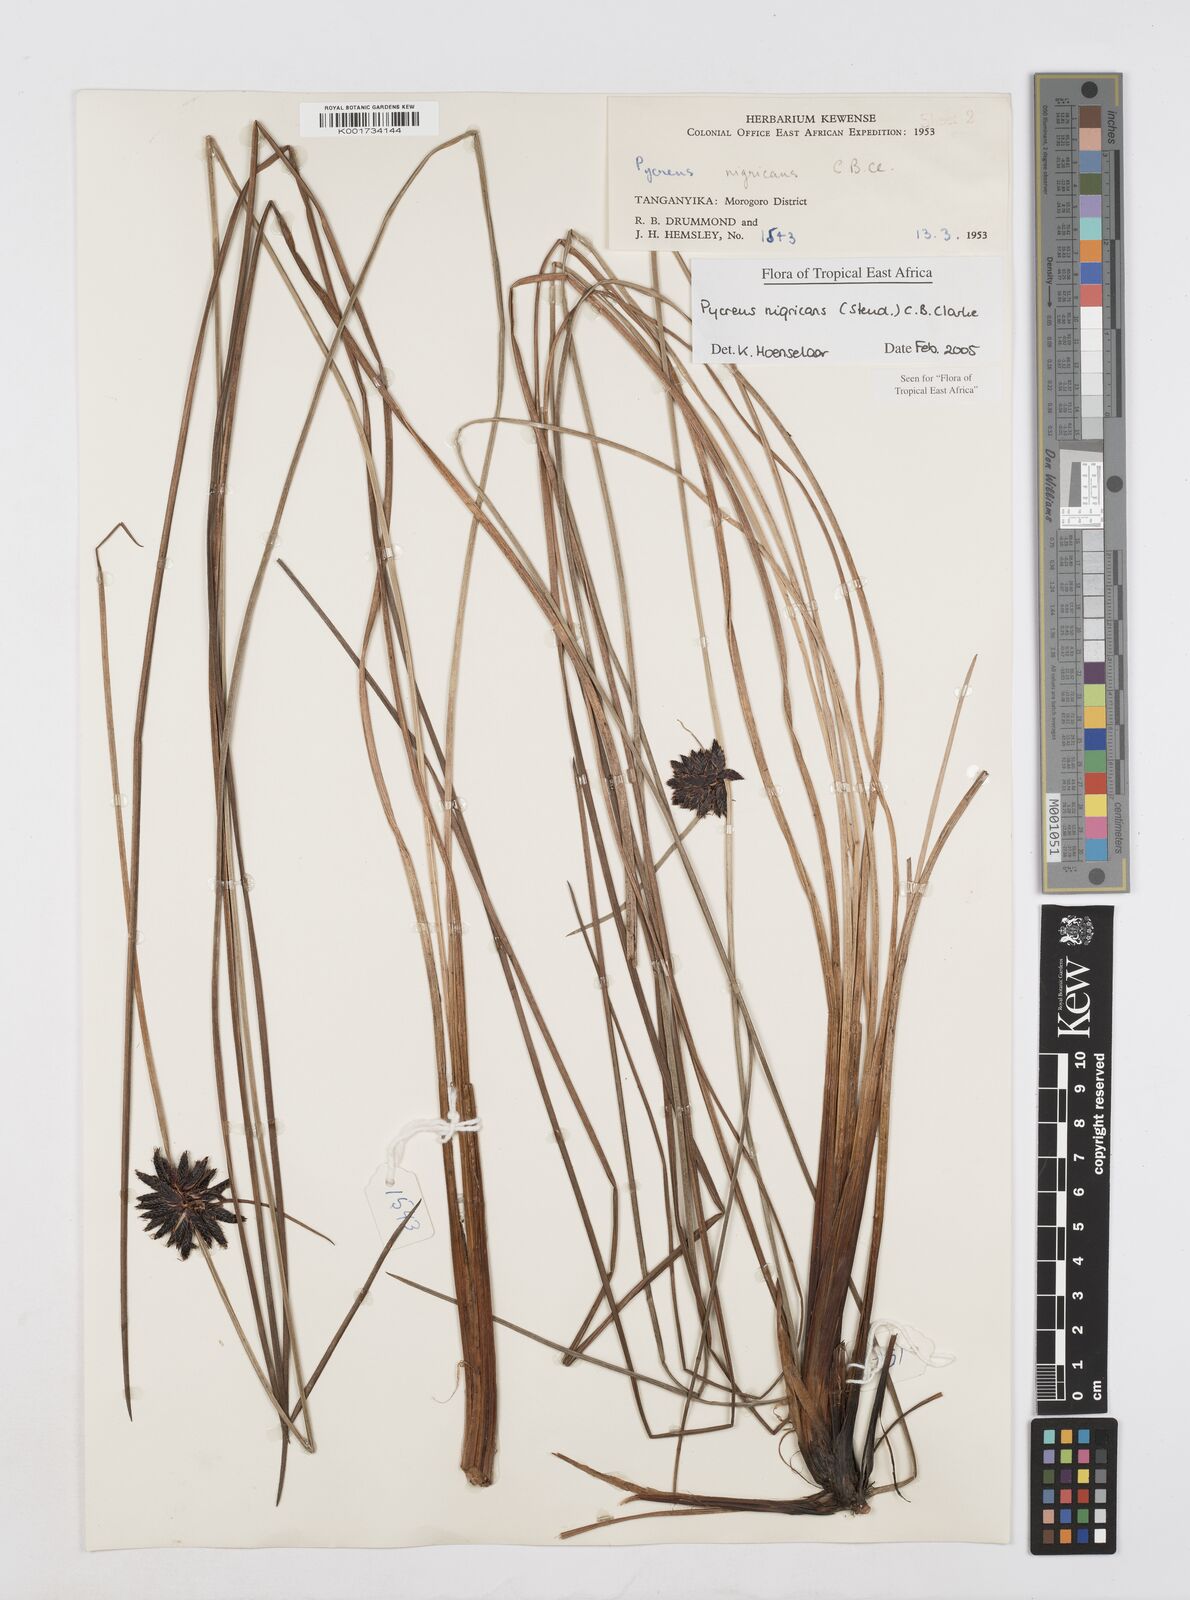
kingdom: Plantae
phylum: Tracheophyta
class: Liliopsida
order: Poales
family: Cyperaceae
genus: Cyperus
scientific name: Cyperus nigricans
